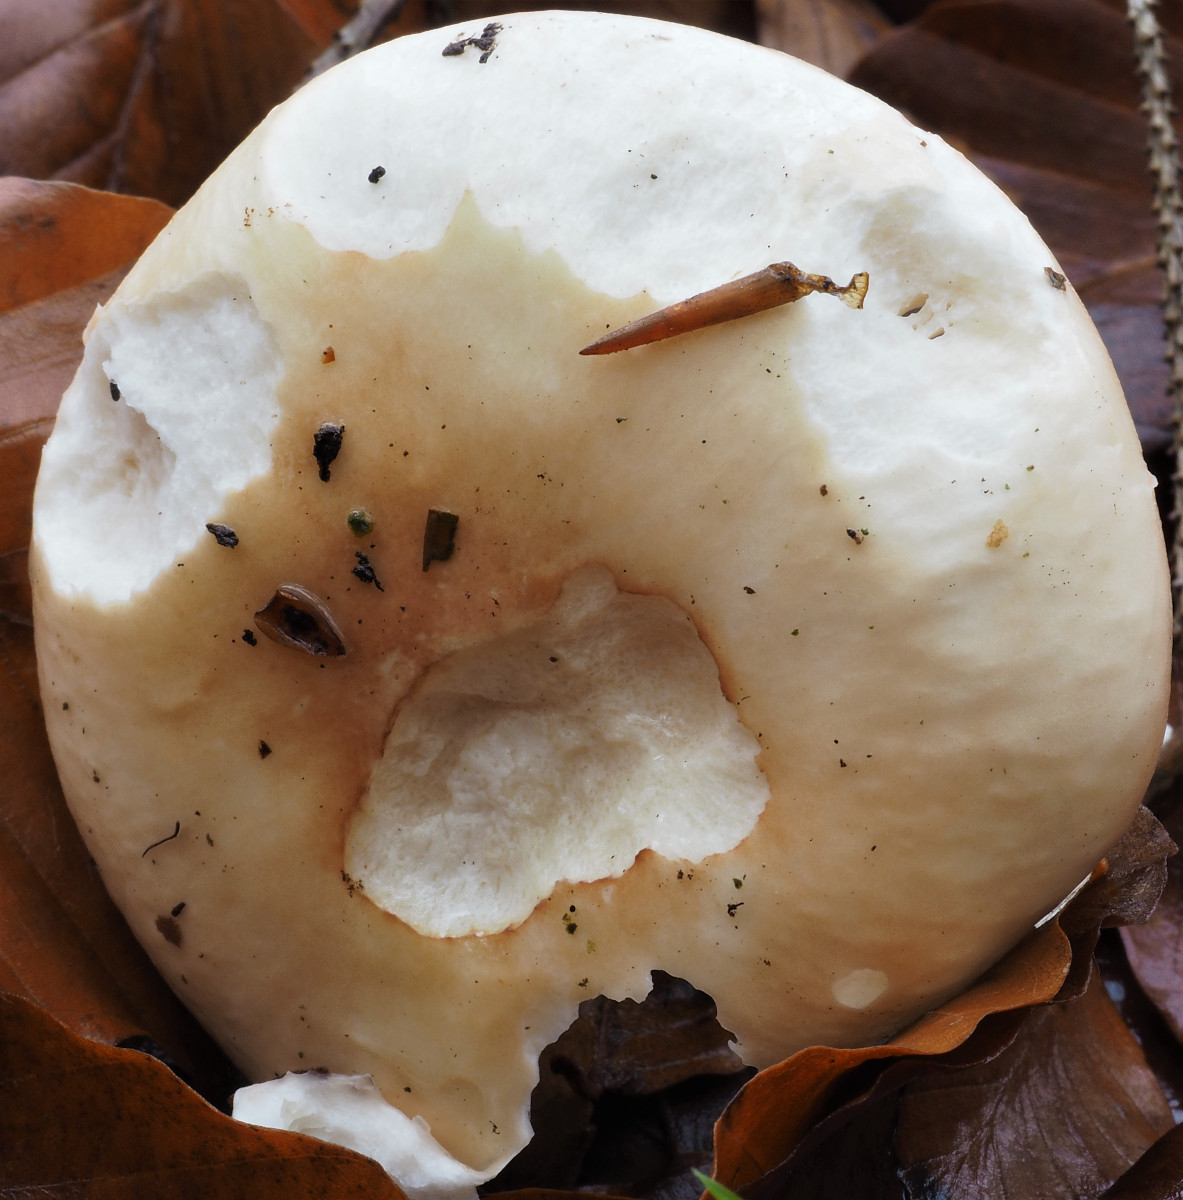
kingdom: Fungi
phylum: Basidiomycota
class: Agaricomycetes
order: Russulales
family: Russulaceae
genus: Russula
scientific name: Russula aurora
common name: rosa skørhat
